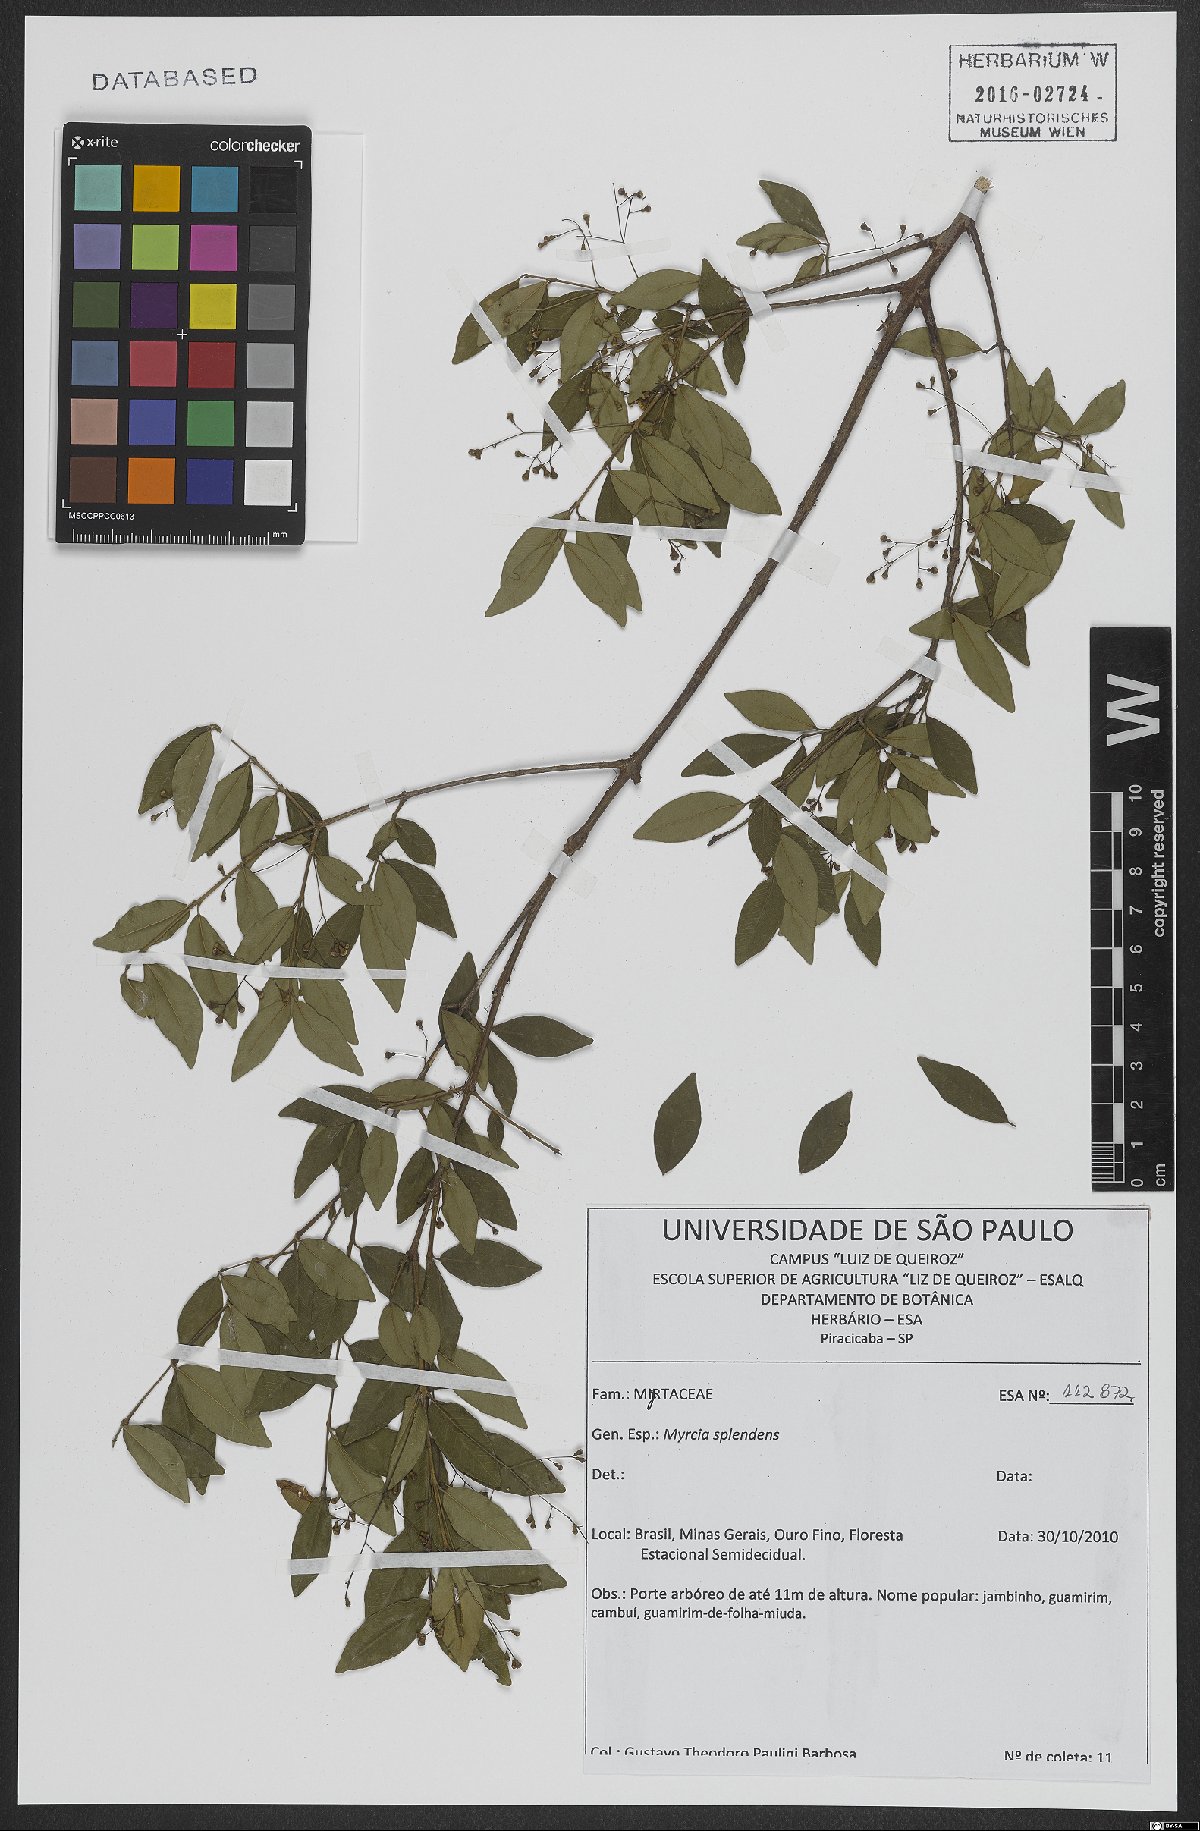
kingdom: Plantae
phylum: Tracheophyta
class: Magnoliopsida
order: Myrtales
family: Myrtaceae
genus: Myrcia
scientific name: Myrcia splendens
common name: Surinam cherry
